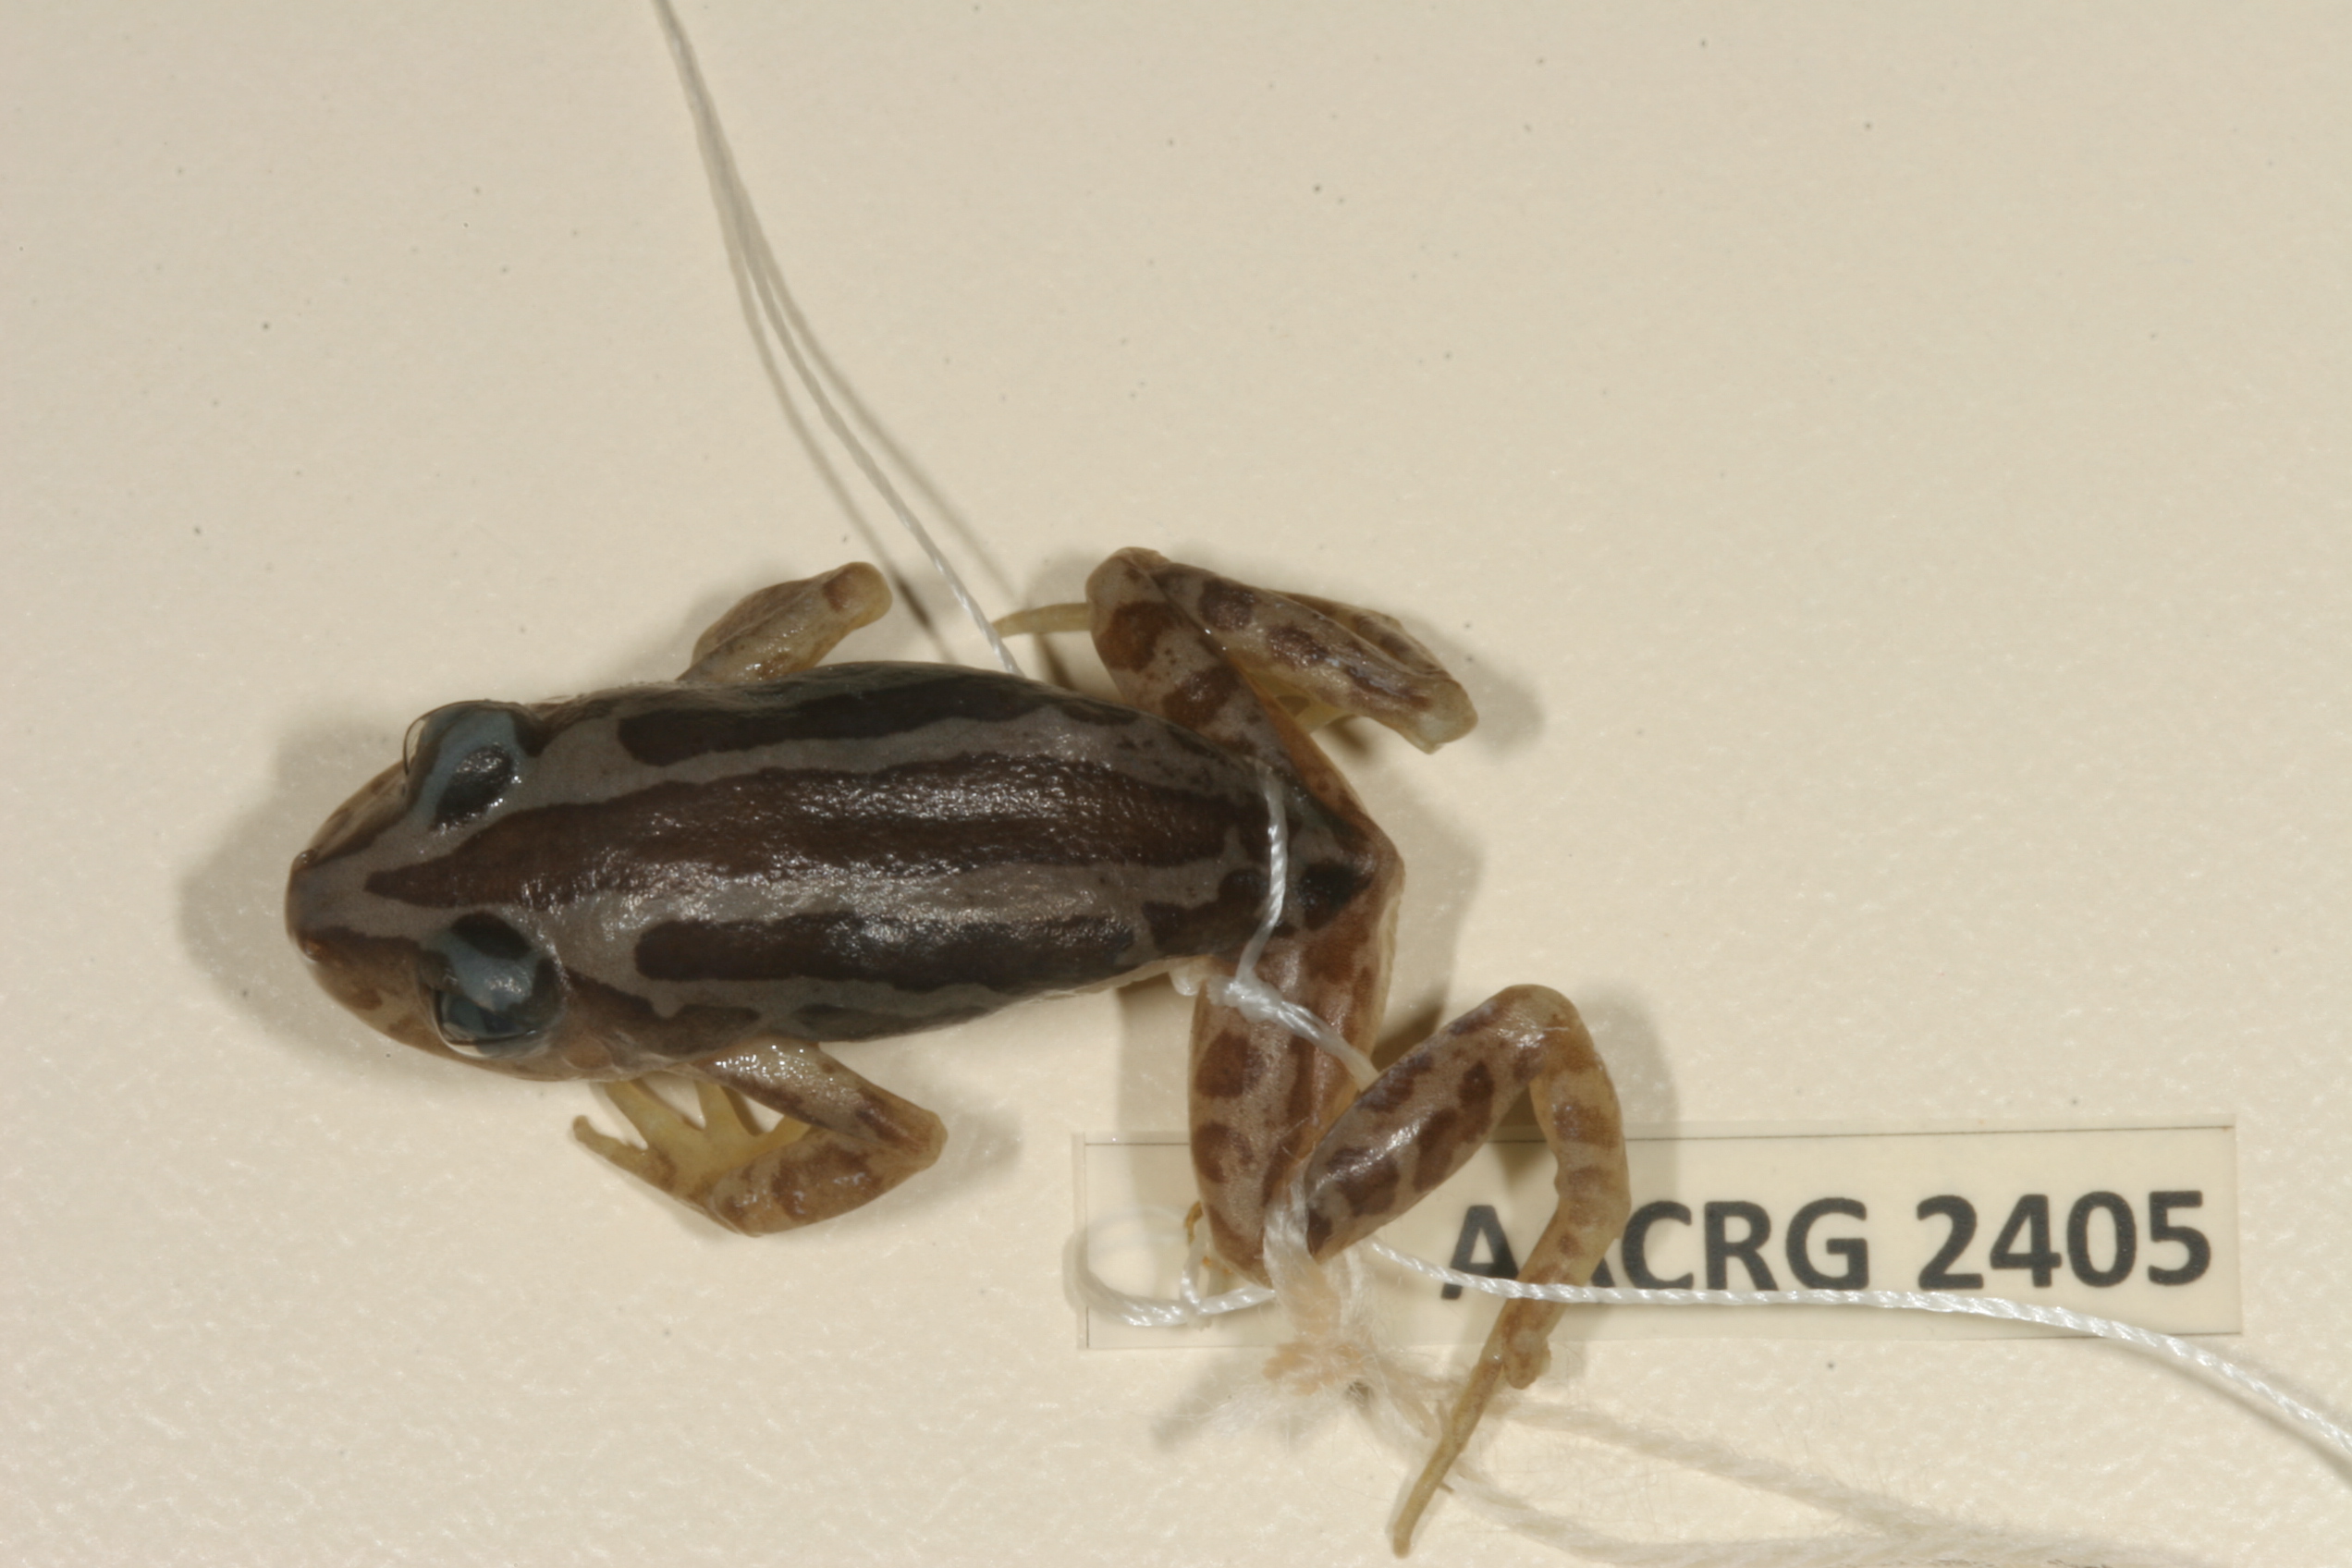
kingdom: Animalia
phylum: Chordata
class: Amphibia
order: Anura
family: Hyperoliidae
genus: Kassina
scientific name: Kassina senegalensis
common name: Senegal land frog
